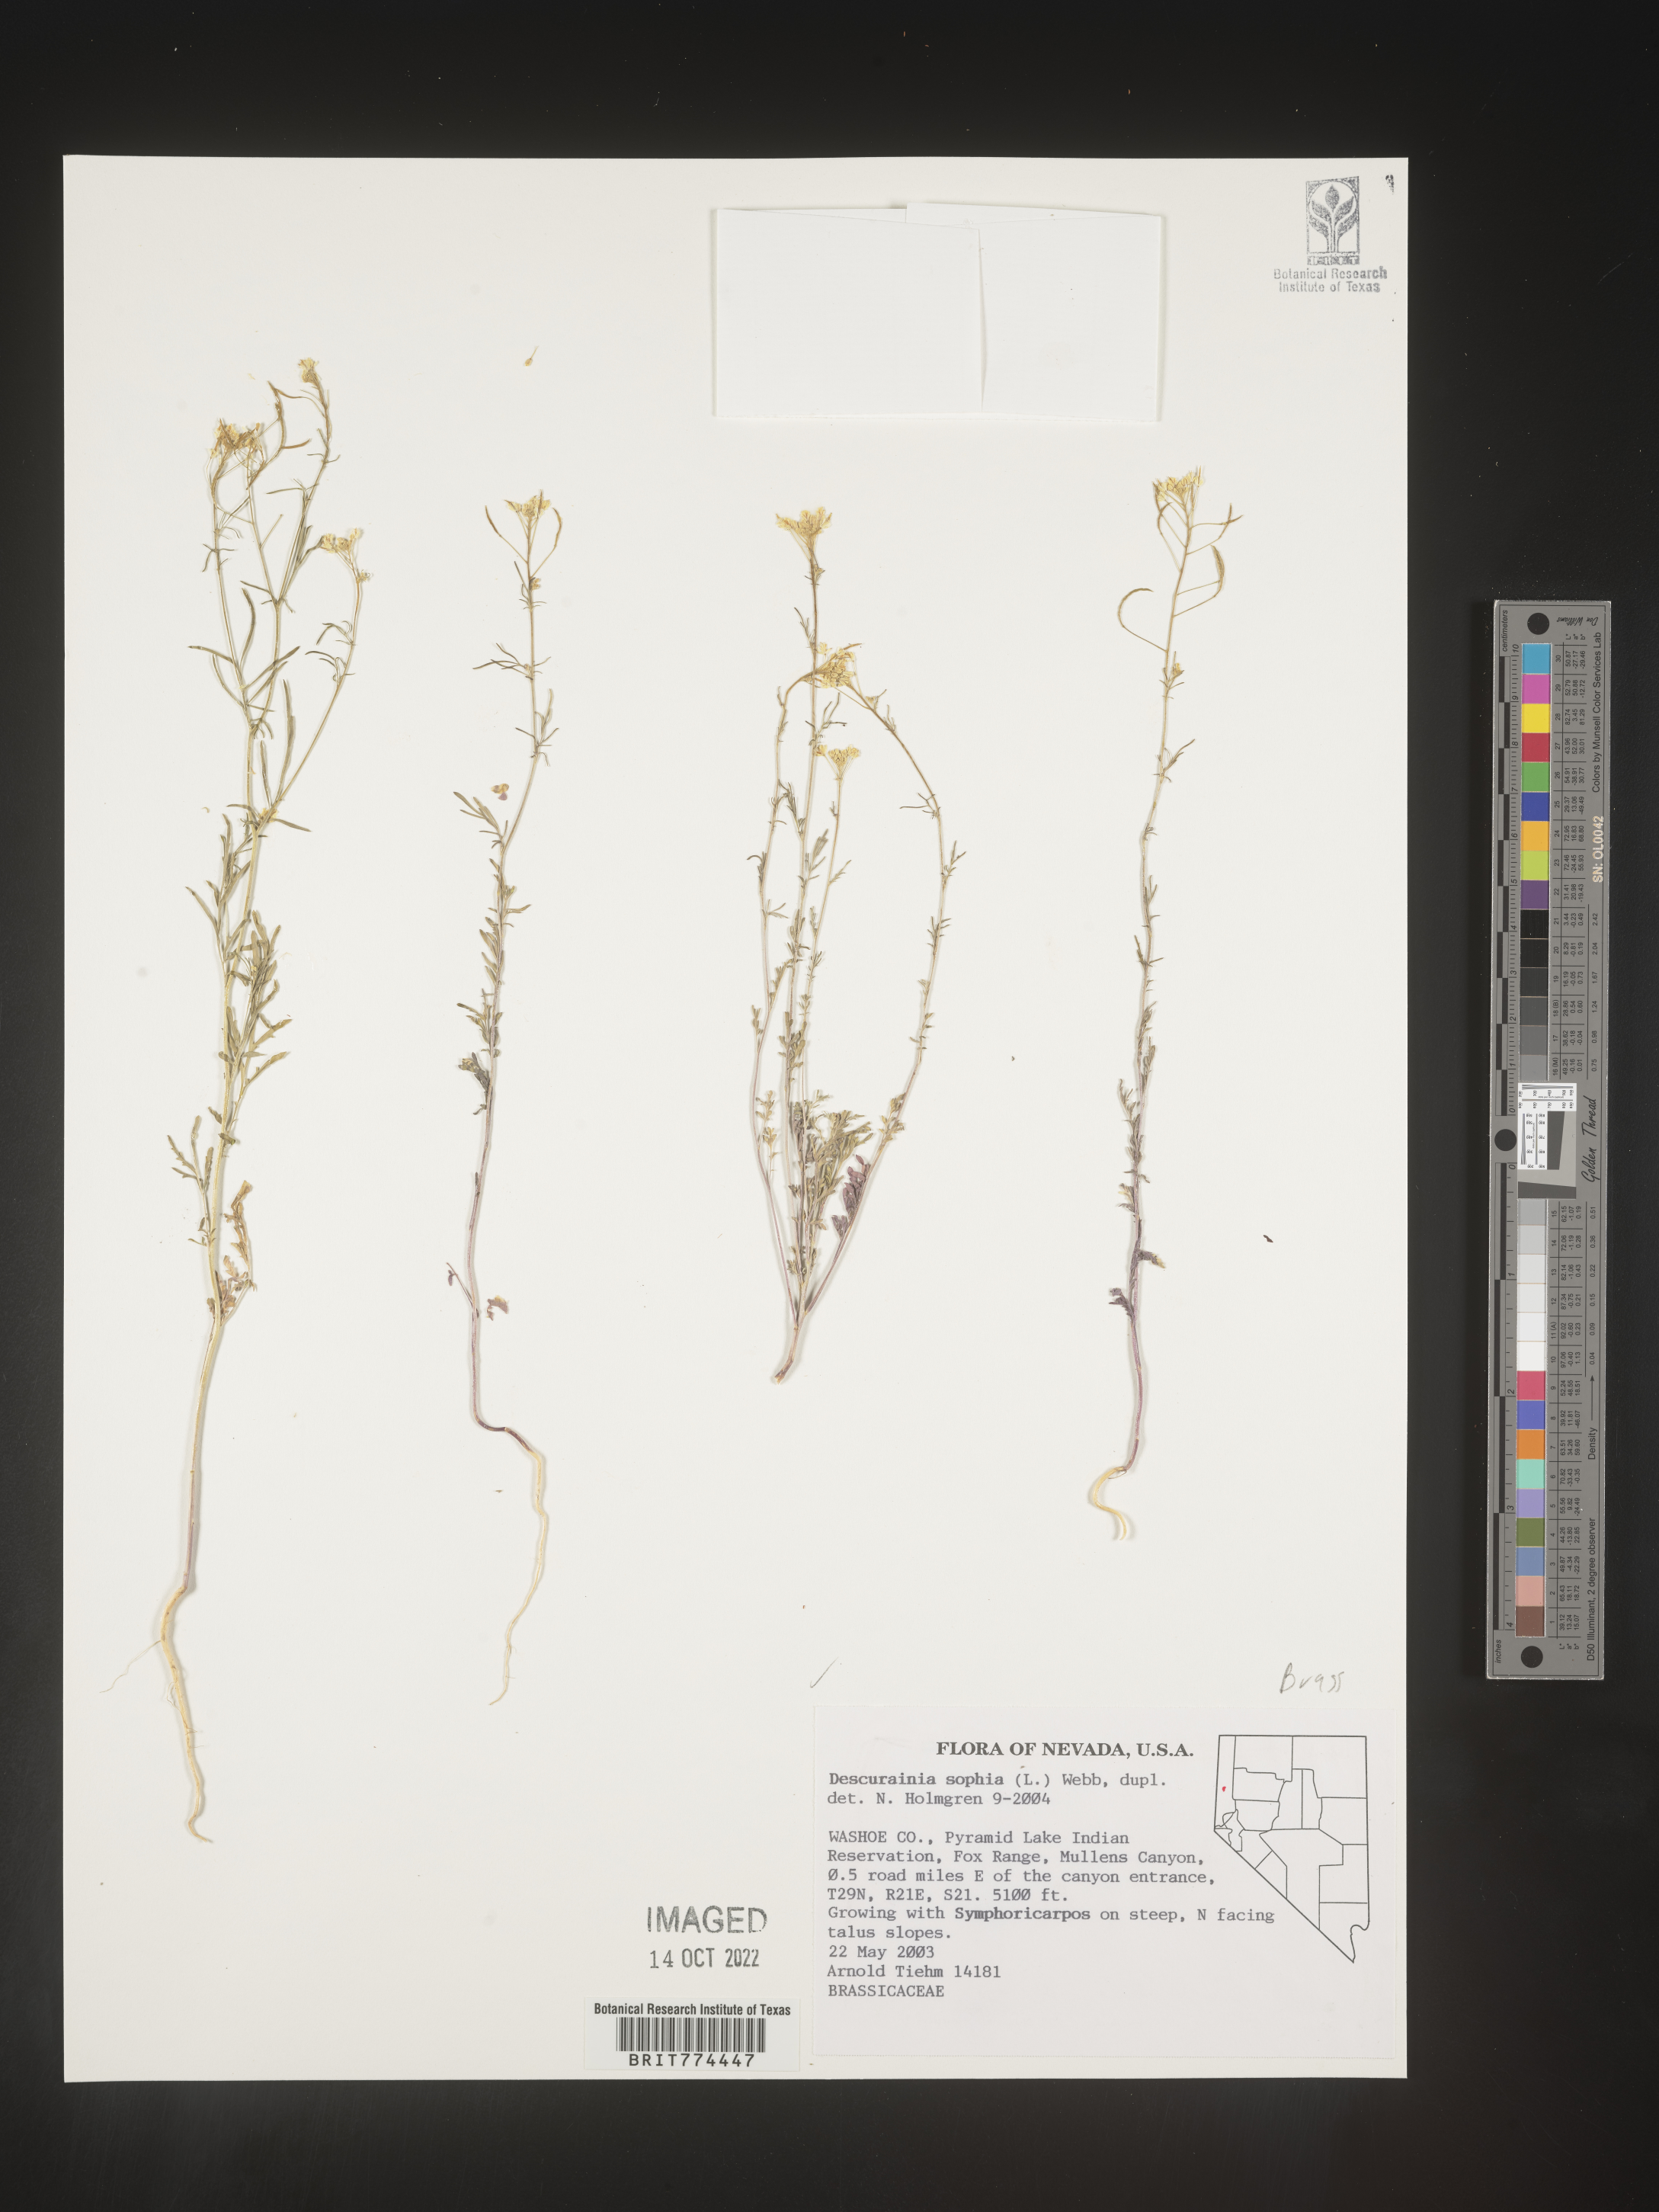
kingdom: Plantae
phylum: Tracheophyta
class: Magnoliopsida
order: Brassicales
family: Brassicaceae
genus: Descurainia
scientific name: Descurainia sophia
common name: Flixweed
